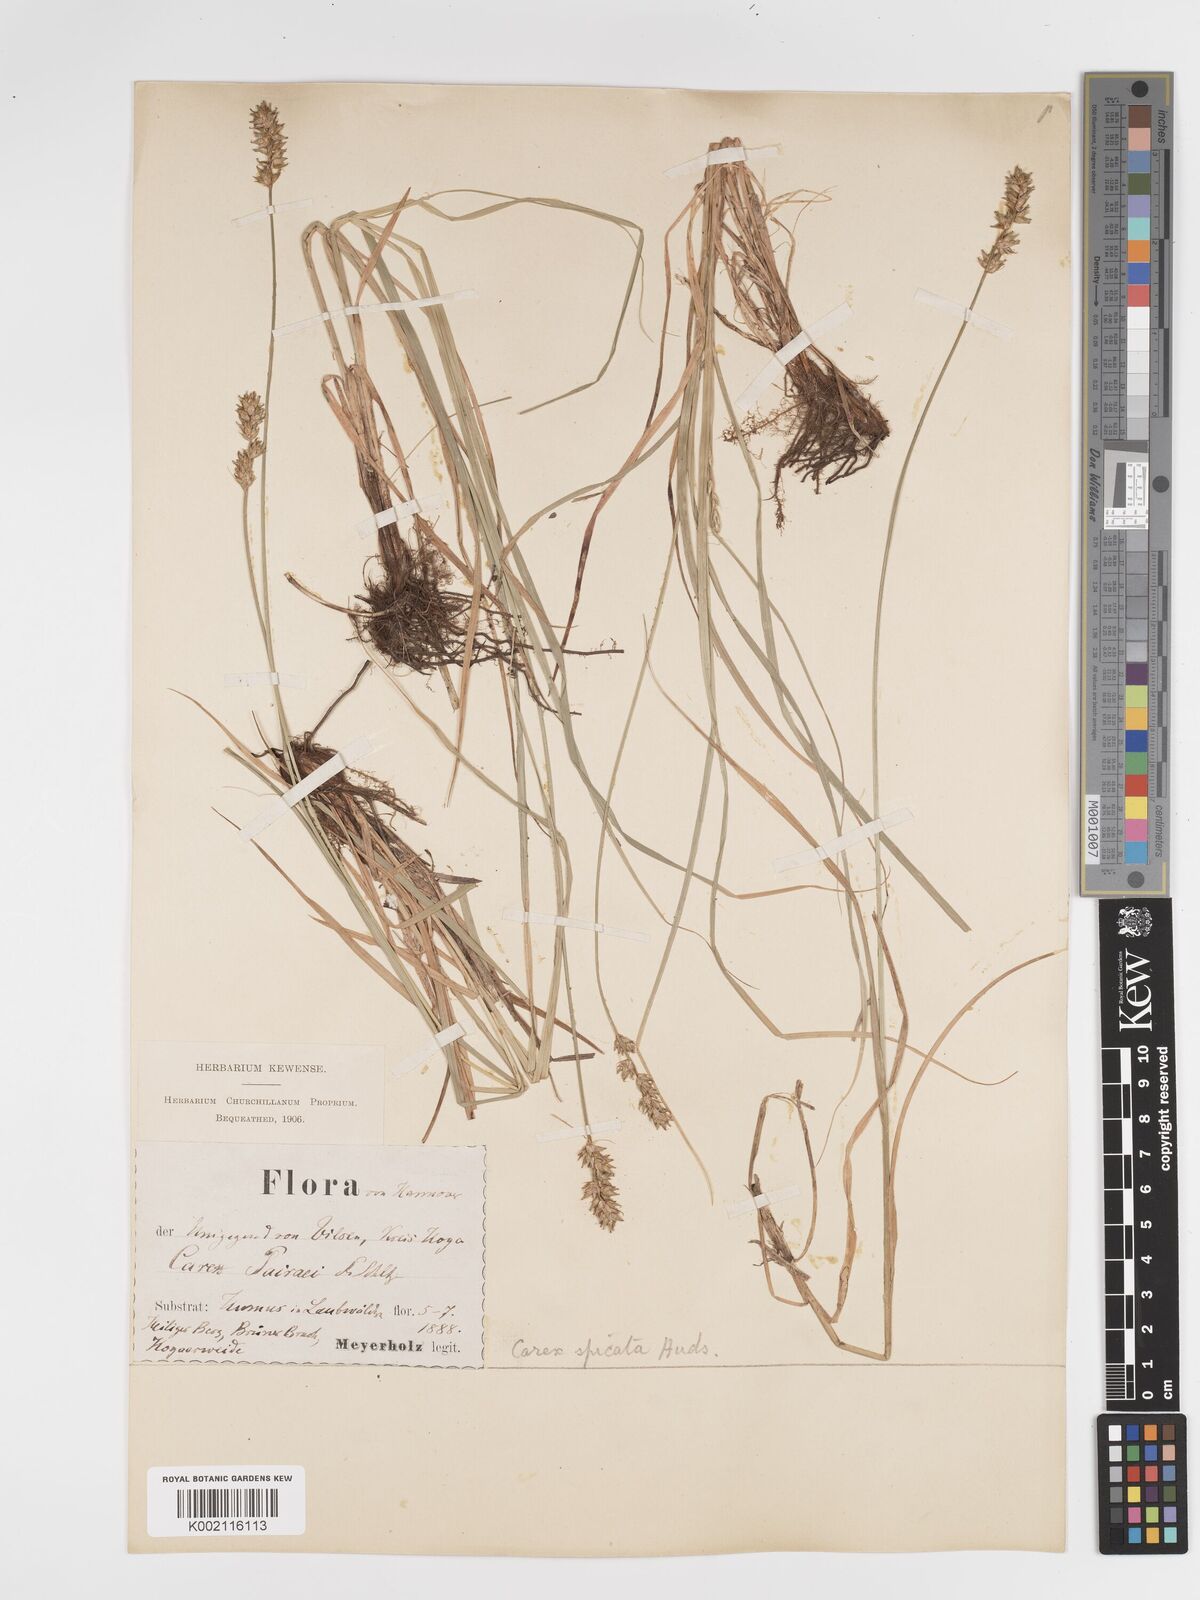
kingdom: Plantae
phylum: Tracheophyta
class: Liliopsida
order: Poales
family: Cyperaceae
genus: Carex
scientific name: Carex spicata
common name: Spiked sedge
